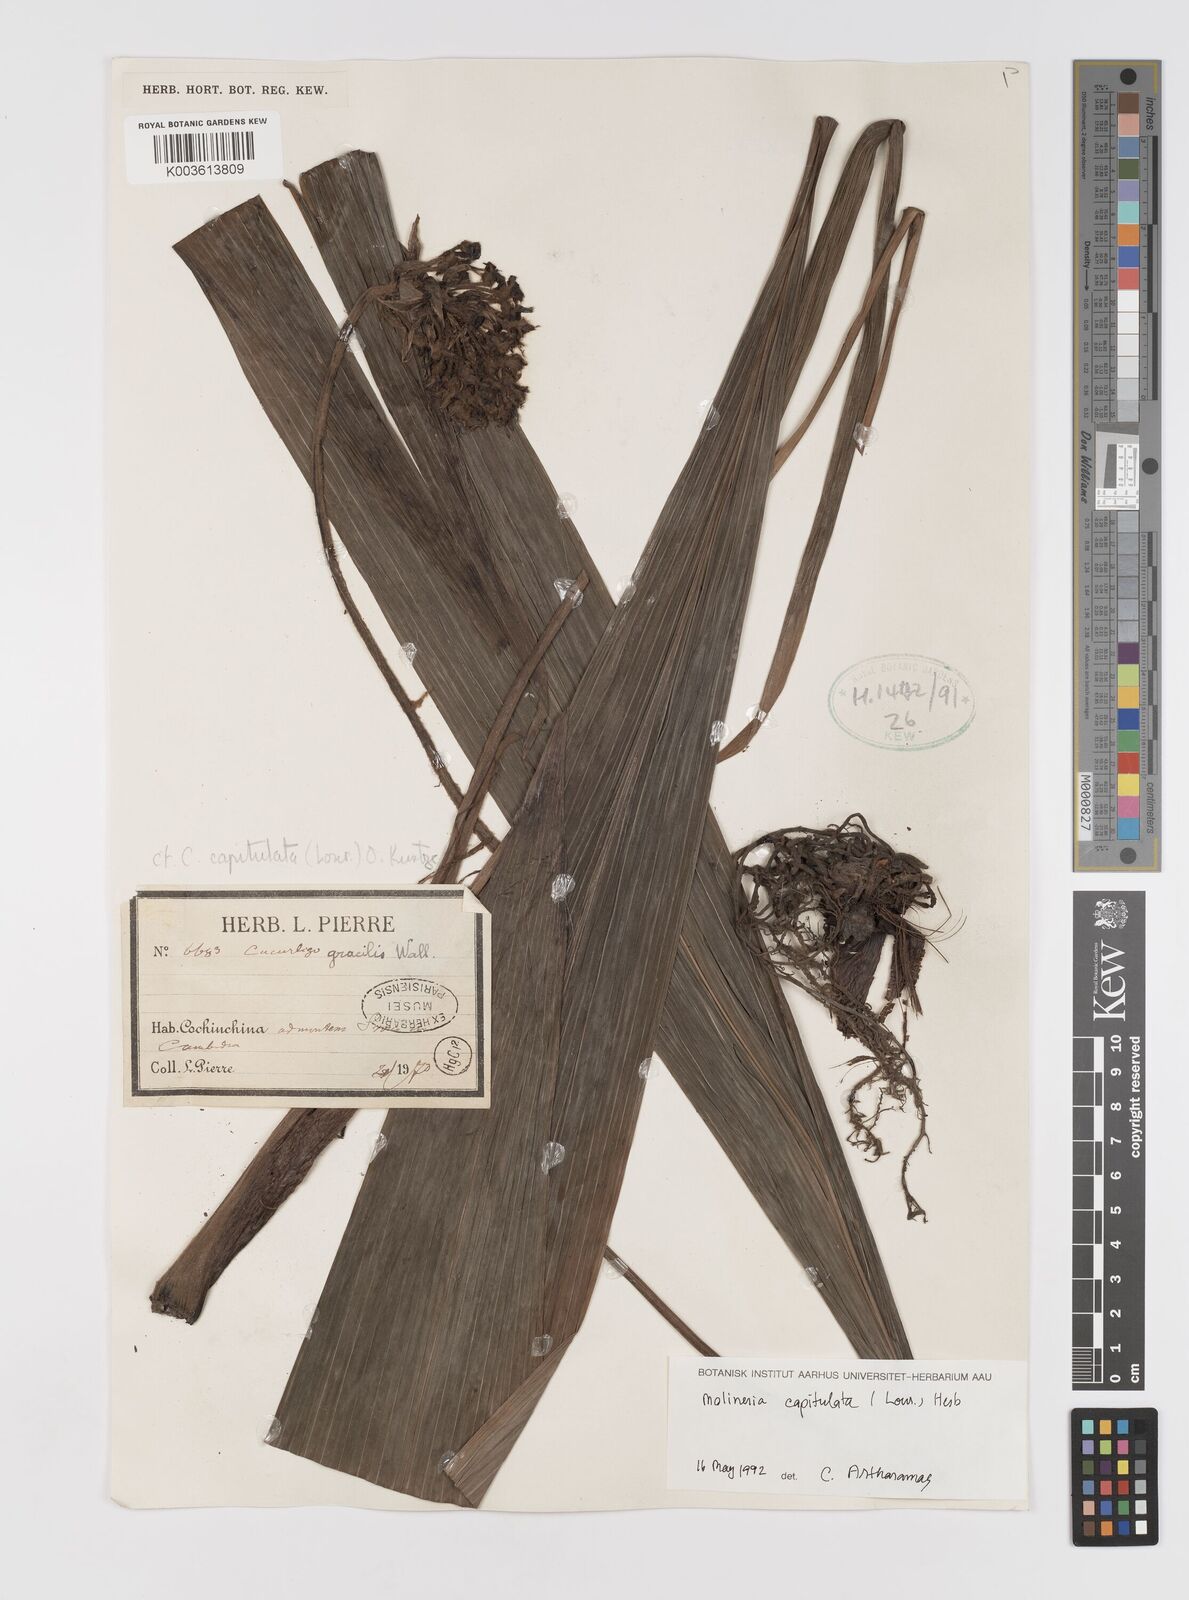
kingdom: Plantae
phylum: Tracheophyta
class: Liliopsida
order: Asparagales
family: Hypoxidaceae
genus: Curculigo
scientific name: Curculigo capitulata
